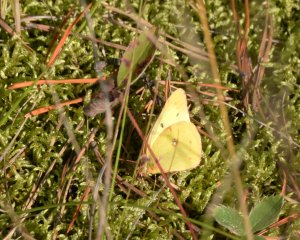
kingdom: Animalia
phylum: Arthropoda
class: Insecta
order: Lepidoptera
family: Pieridae
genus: Colias
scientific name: Colias philodice
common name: Clouded Sulphur
